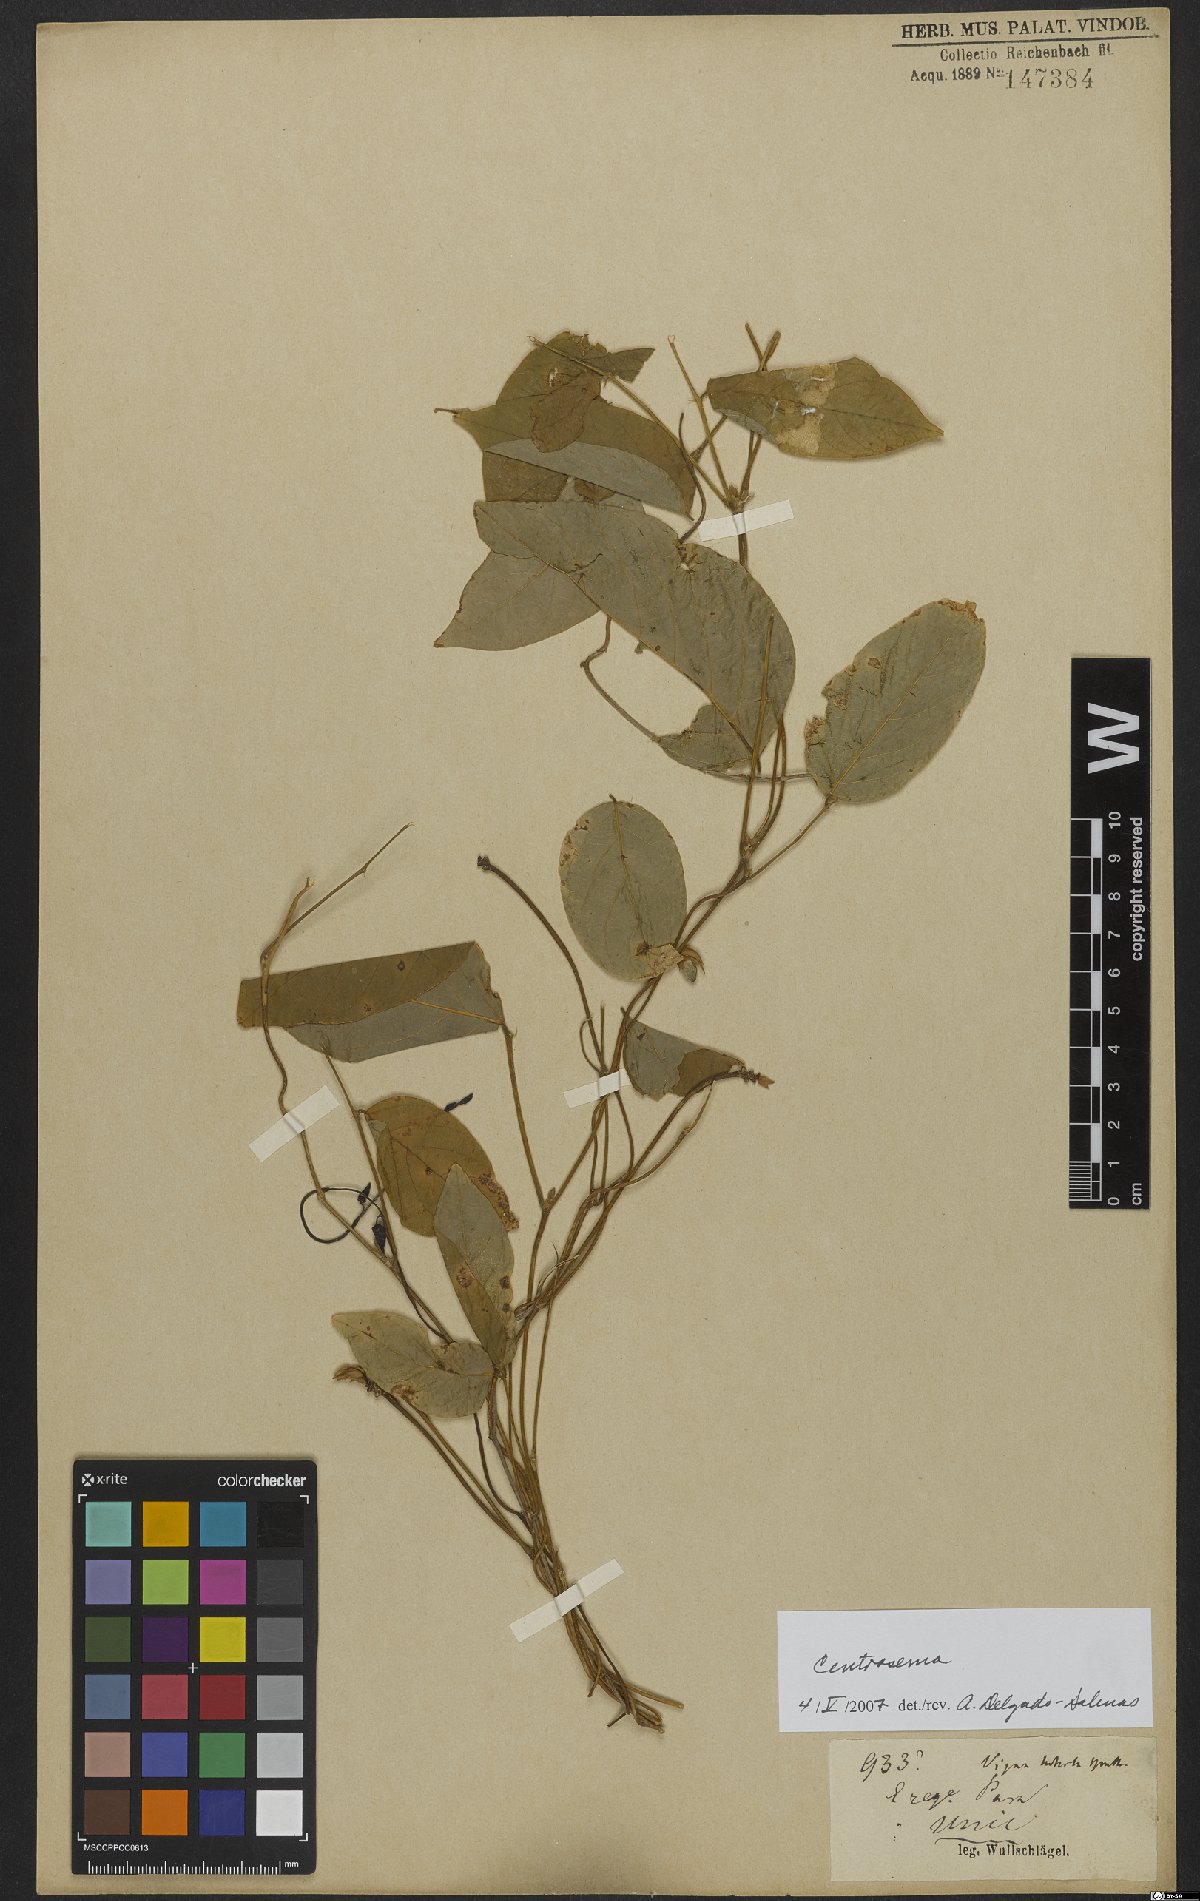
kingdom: Plantae
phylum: Tracheophyta
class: Magnoliopsida
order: Fabales
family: Fabaceae
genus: Centrosema
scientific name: Centrosema
